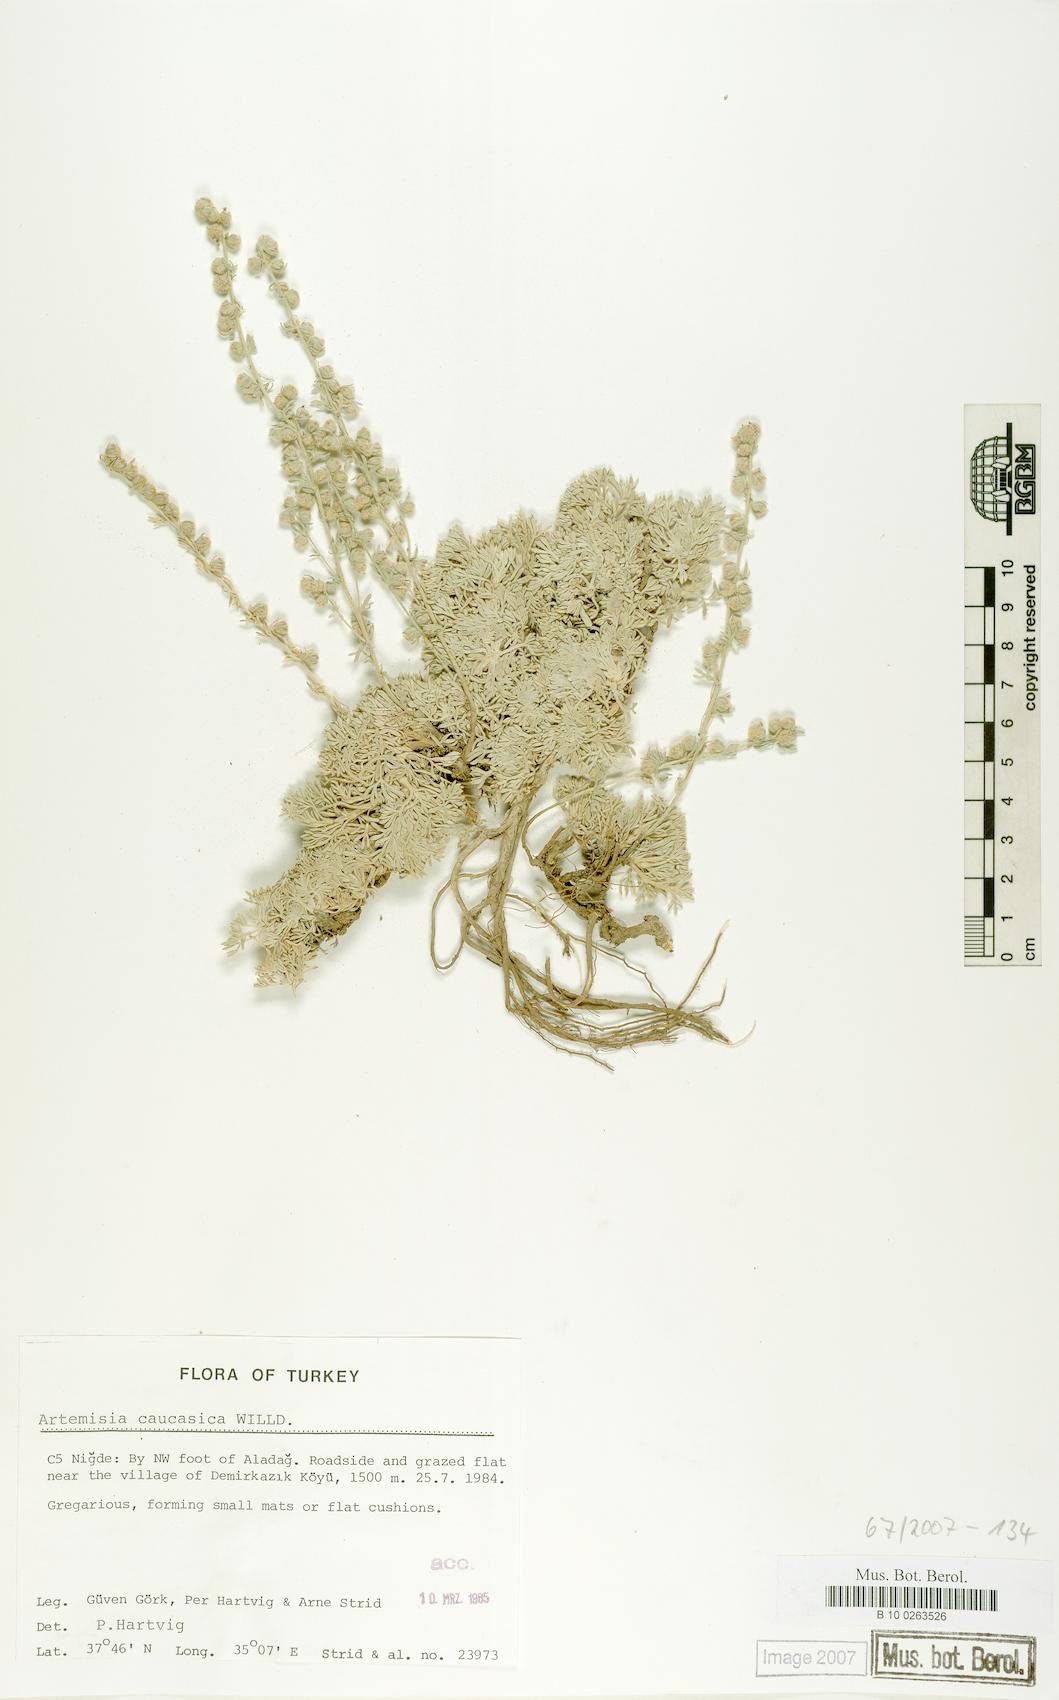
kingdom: Plantae
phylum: Tracheophyta
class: Magnoliopsida
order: Asterales
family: Asteraceae
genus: Artemisia
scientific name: Artemisia alpina
